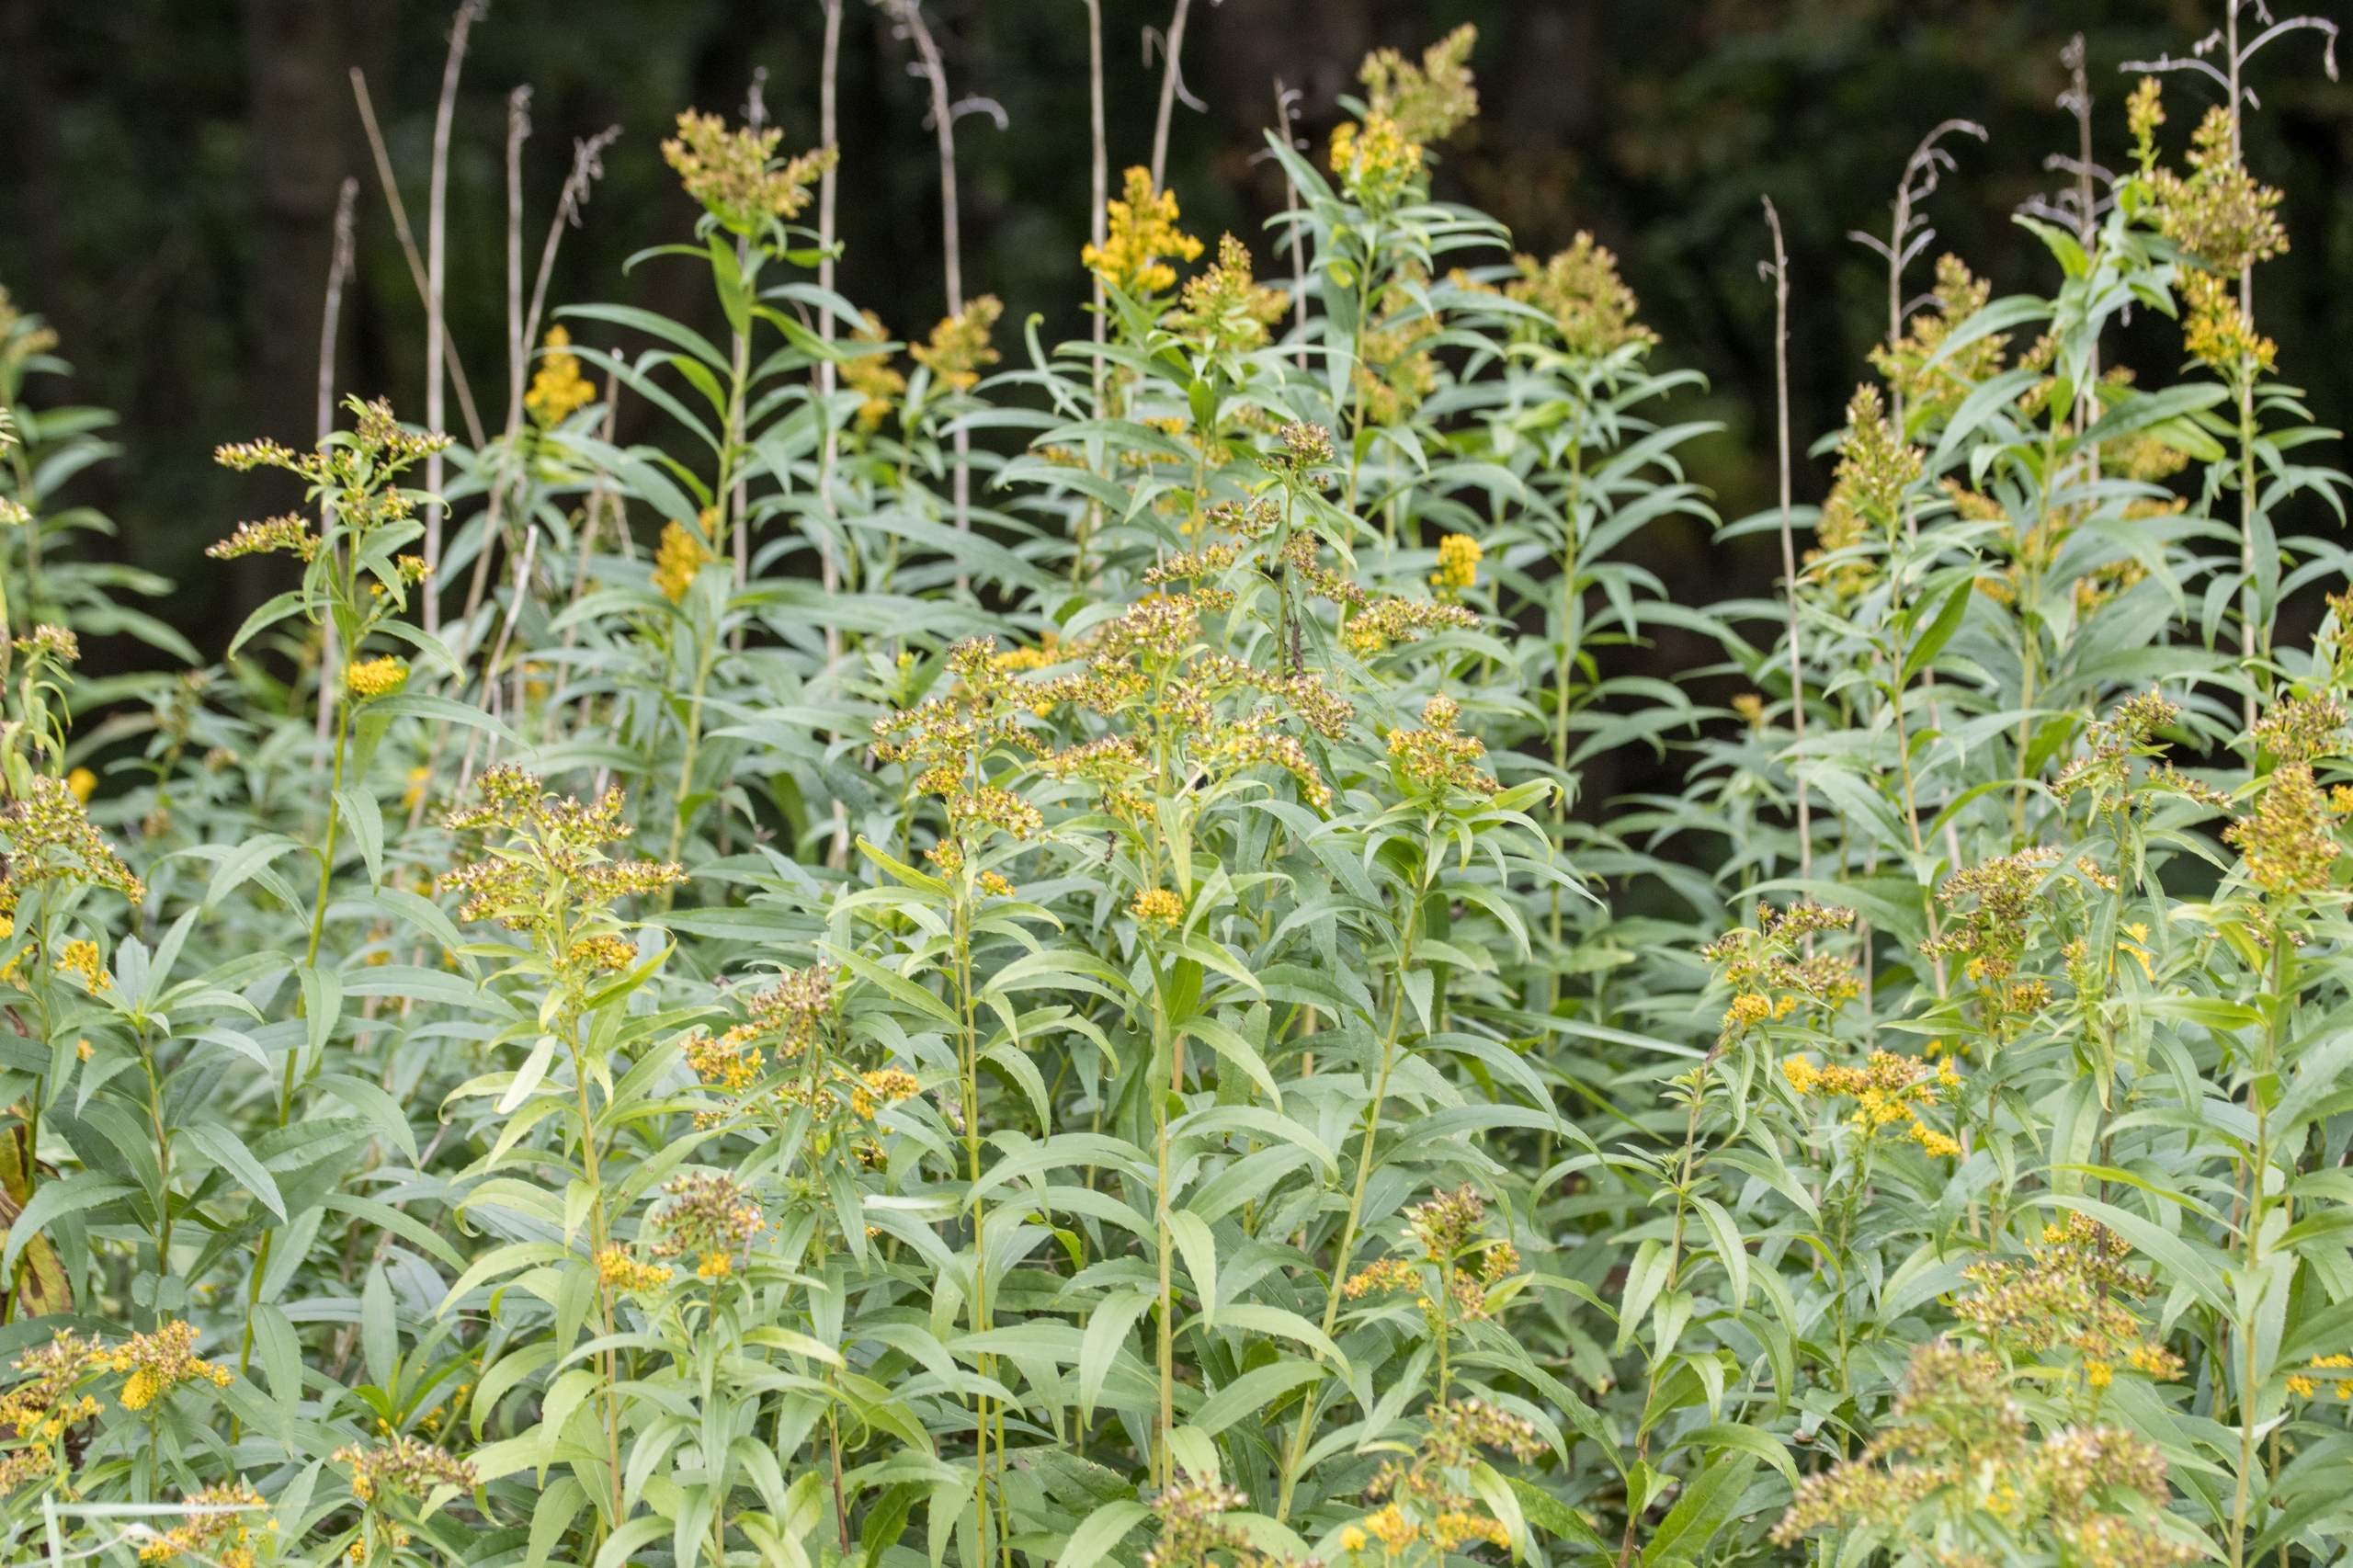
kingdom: Plantae
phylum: Tracheophyta
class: Magnoliopsida
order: Asterales
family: Asteraceae
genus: Solidago
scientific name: Solidago gigantea
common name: Sildig gyldenris
